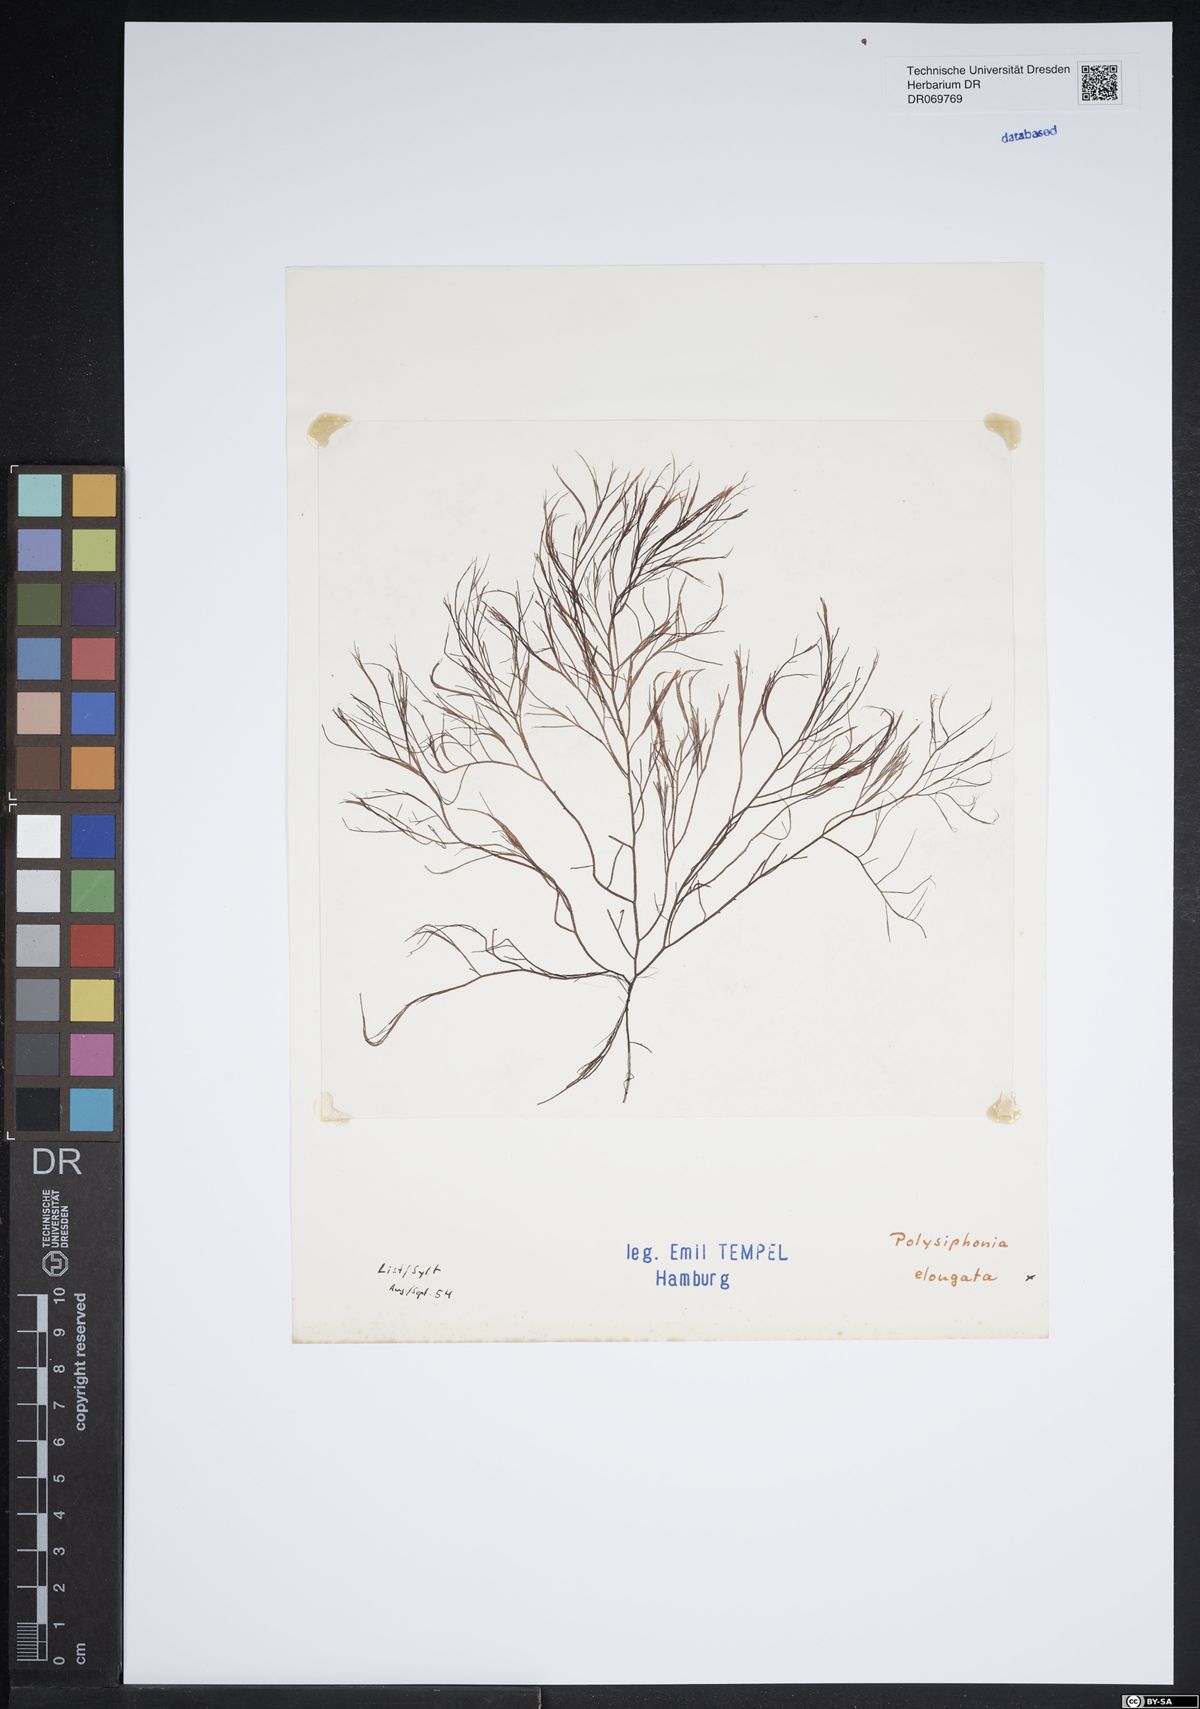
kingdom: Plantae
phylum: Rhodophyta
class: Florideophyceae
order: Ceramiales
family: Rhodomelaceae
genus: Vertebrata
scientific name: Vertebrata spec
